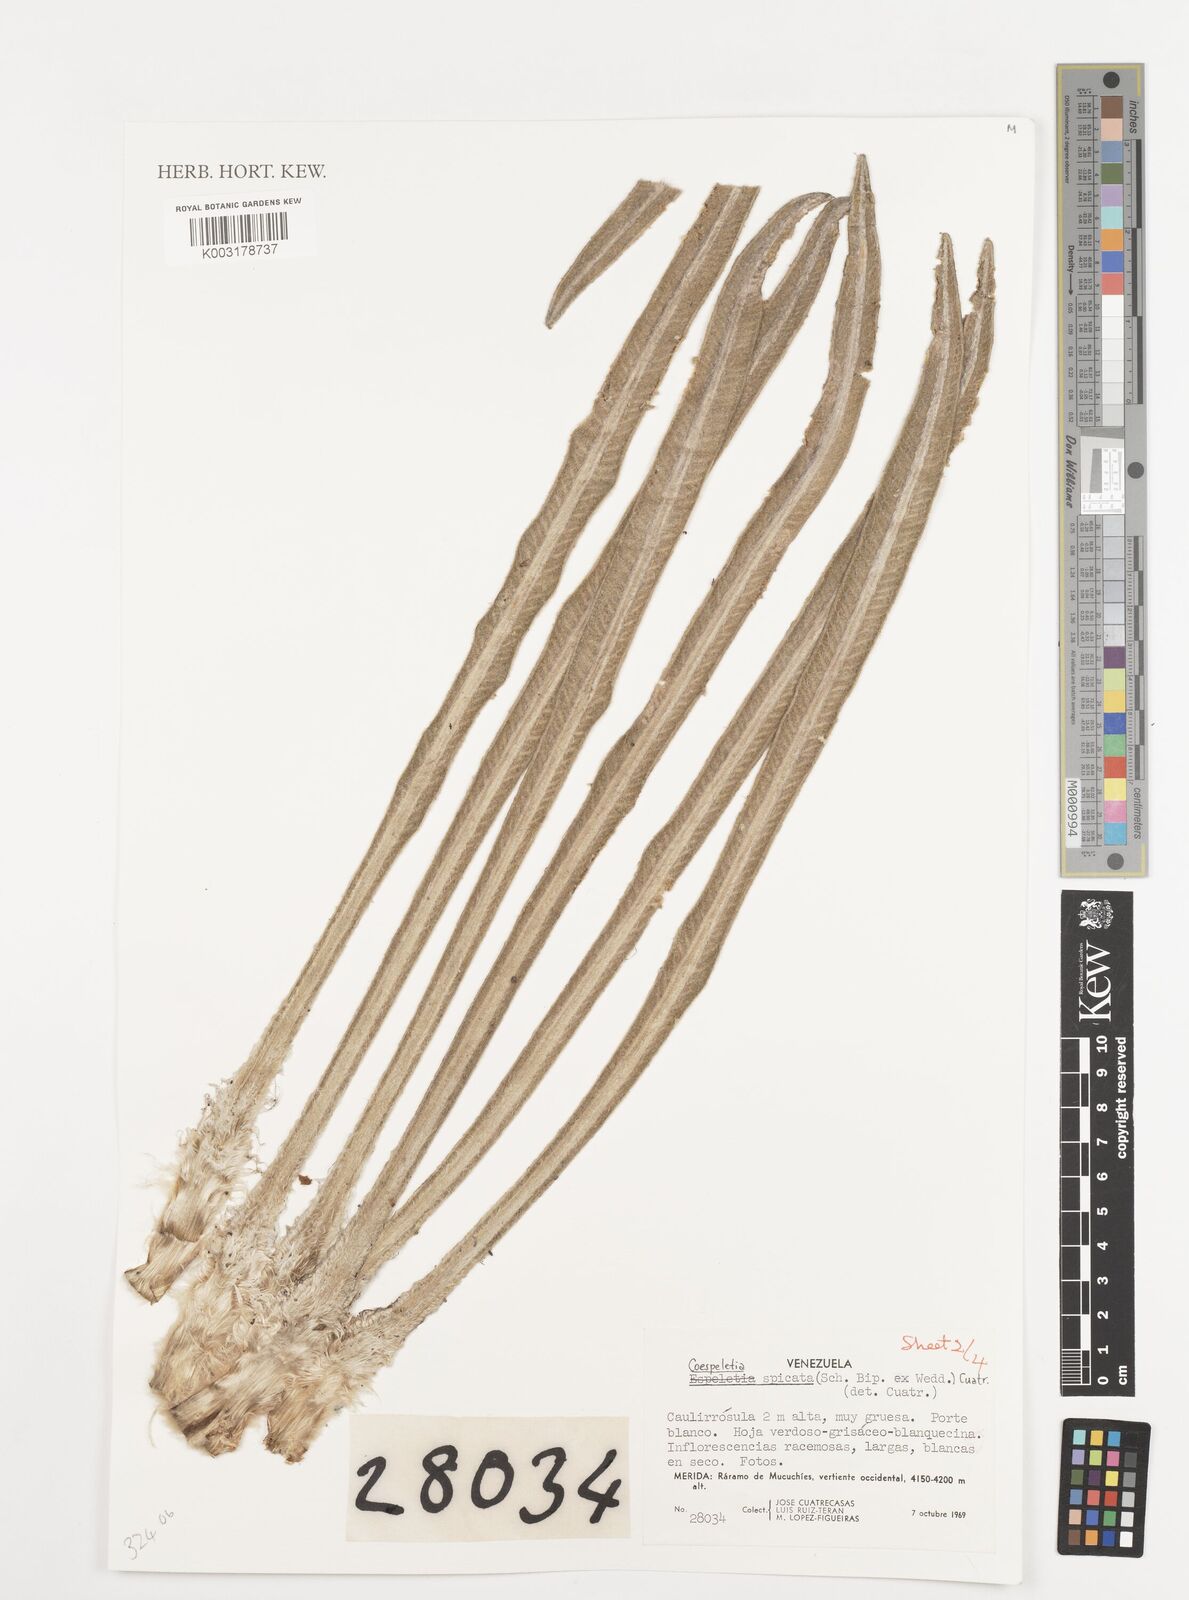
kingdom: Plantae
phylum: Tracheophyta
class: Magnoliopsida
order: Asterales
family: Asteraceae
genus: Espeletia
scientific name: Espeletia spicata
